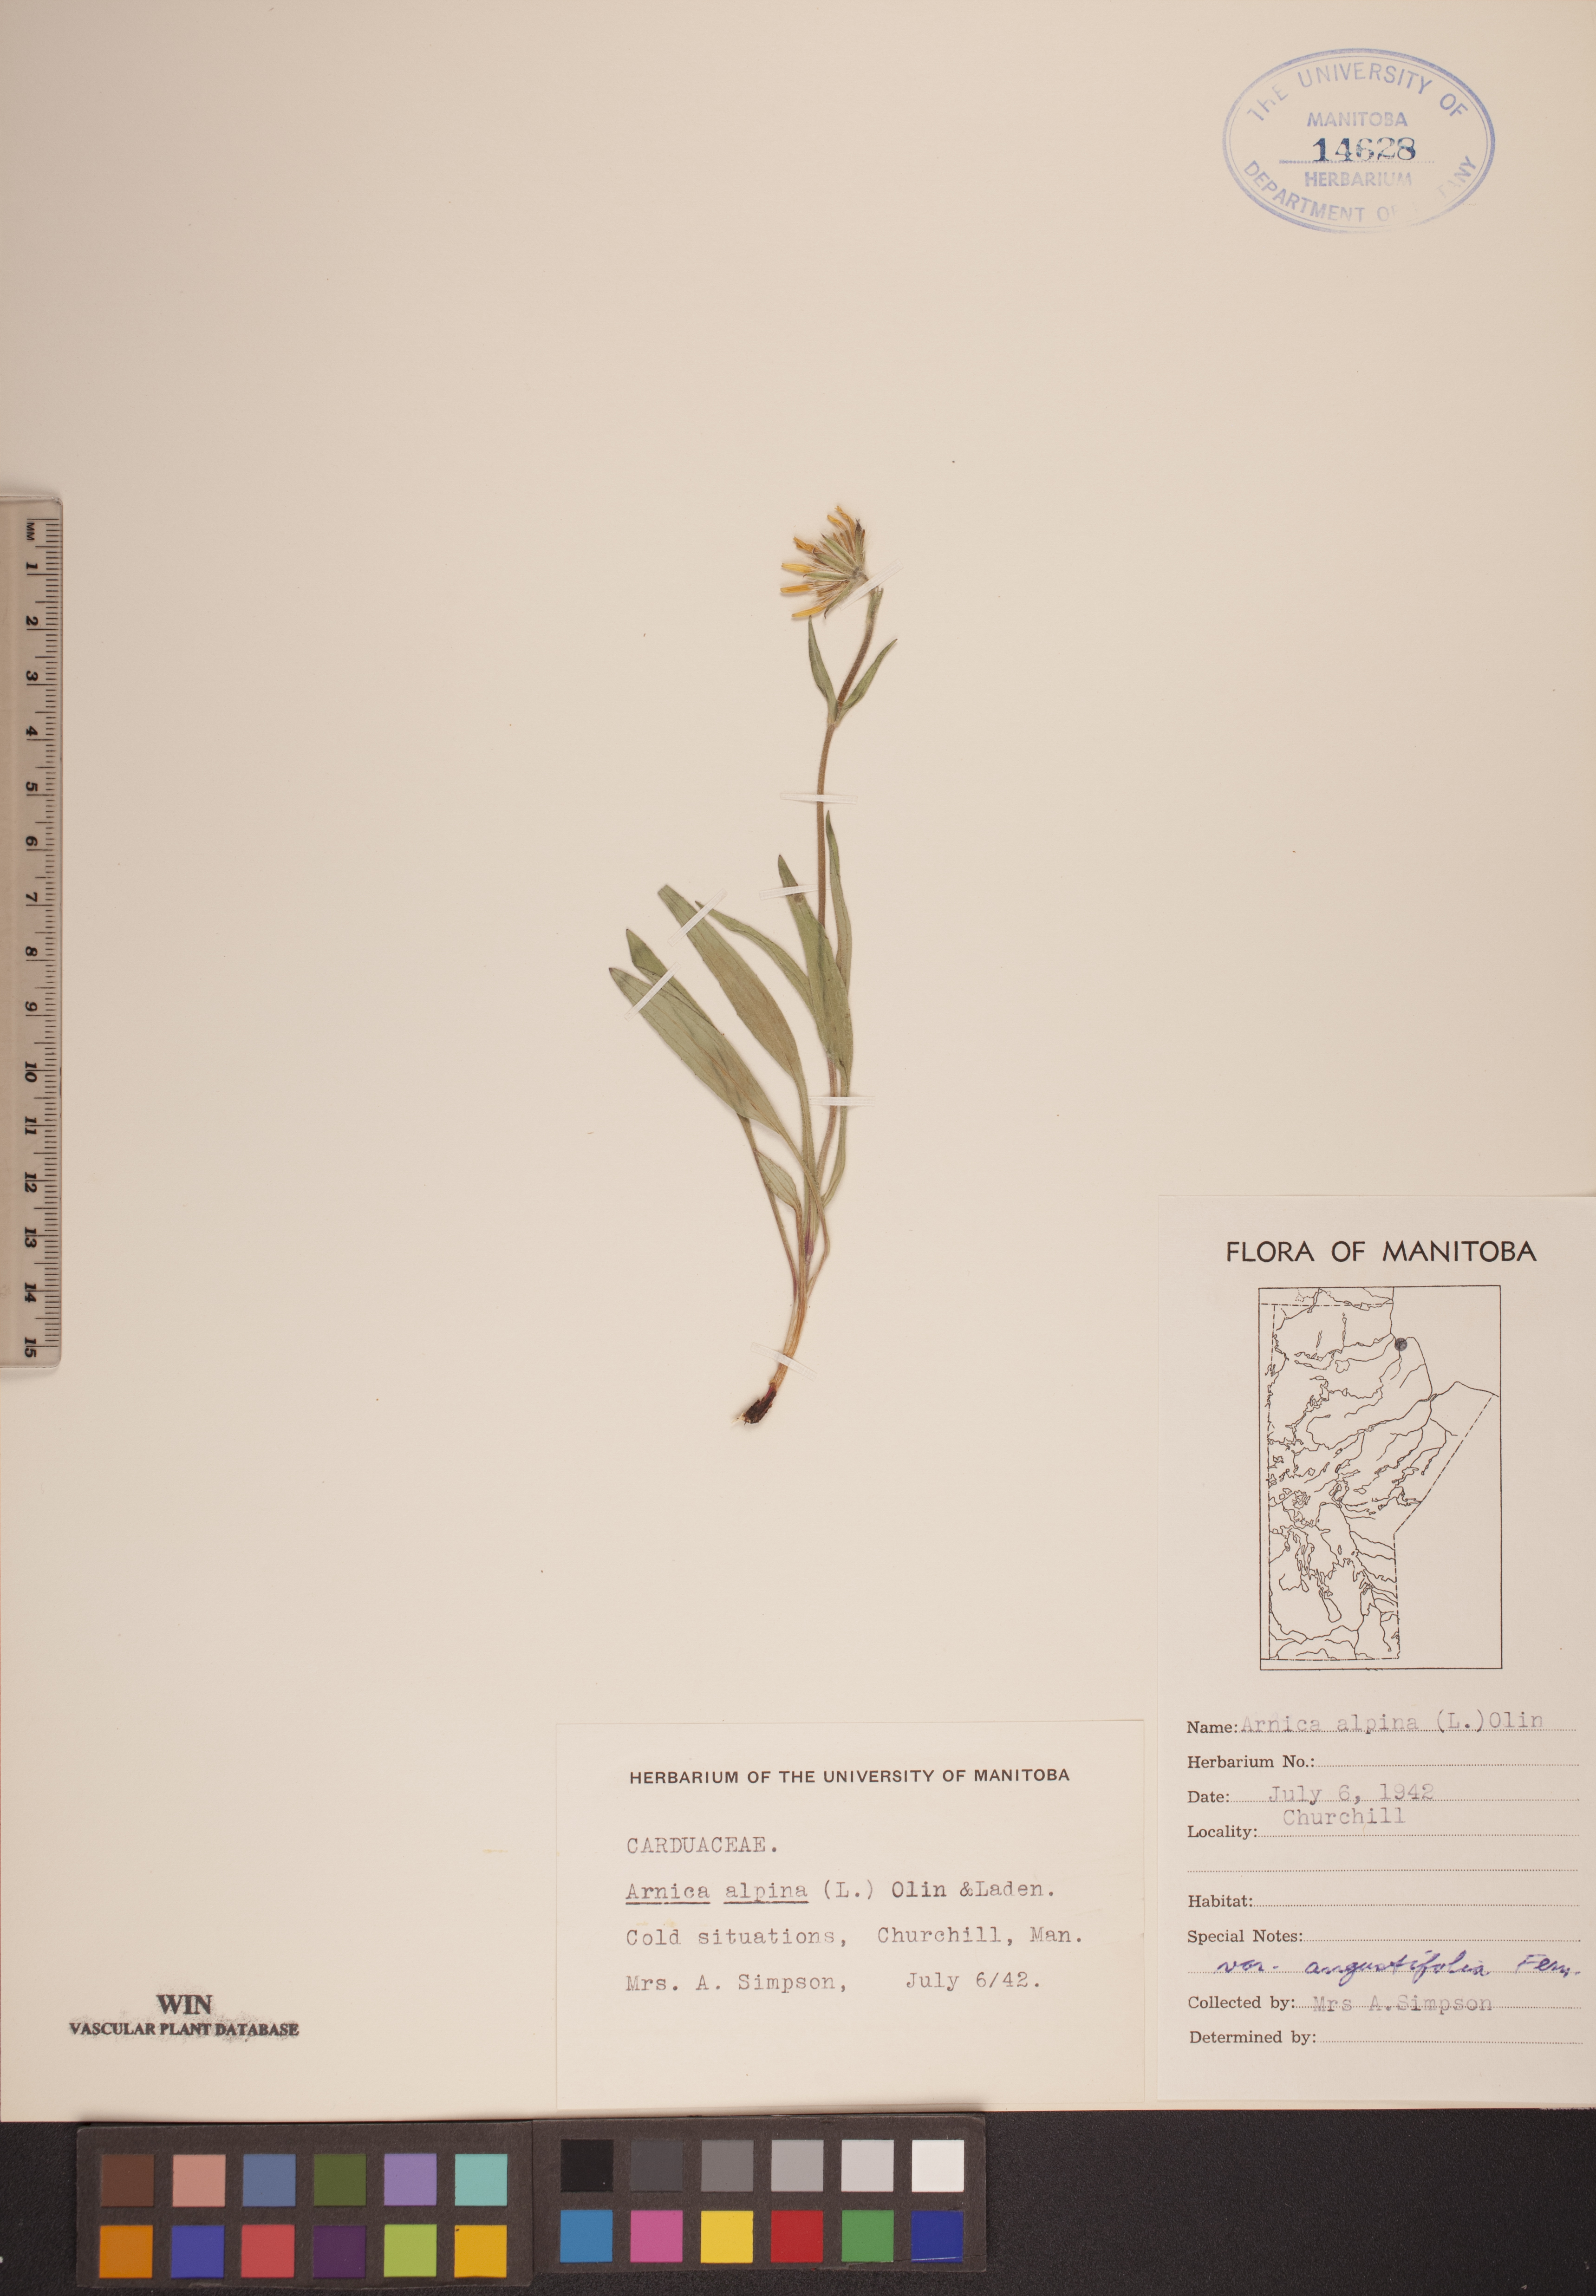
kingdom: Plantae
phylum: Tracheophyta
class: Magnoliopsida
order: Asterales
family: Asteraceae
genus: Arnica
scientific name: Arnica angustifolia
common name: Arctic arnica
